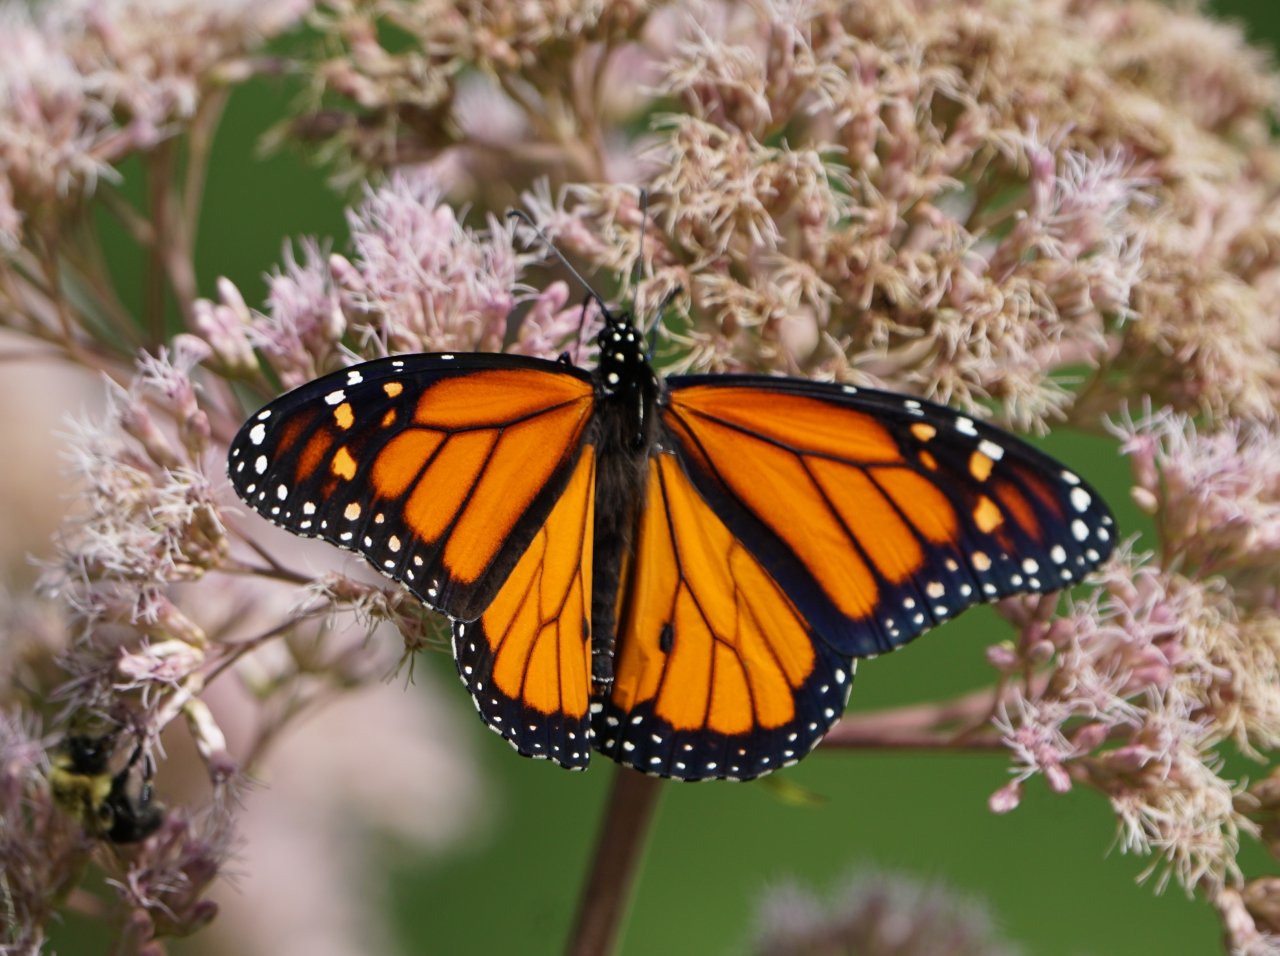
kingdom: Animalia
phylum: Arthropoda
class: Insecta
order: Lepidoptera
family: Nymphalidae
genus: Danaus
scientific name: Danaus plexippus
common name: Monarch
